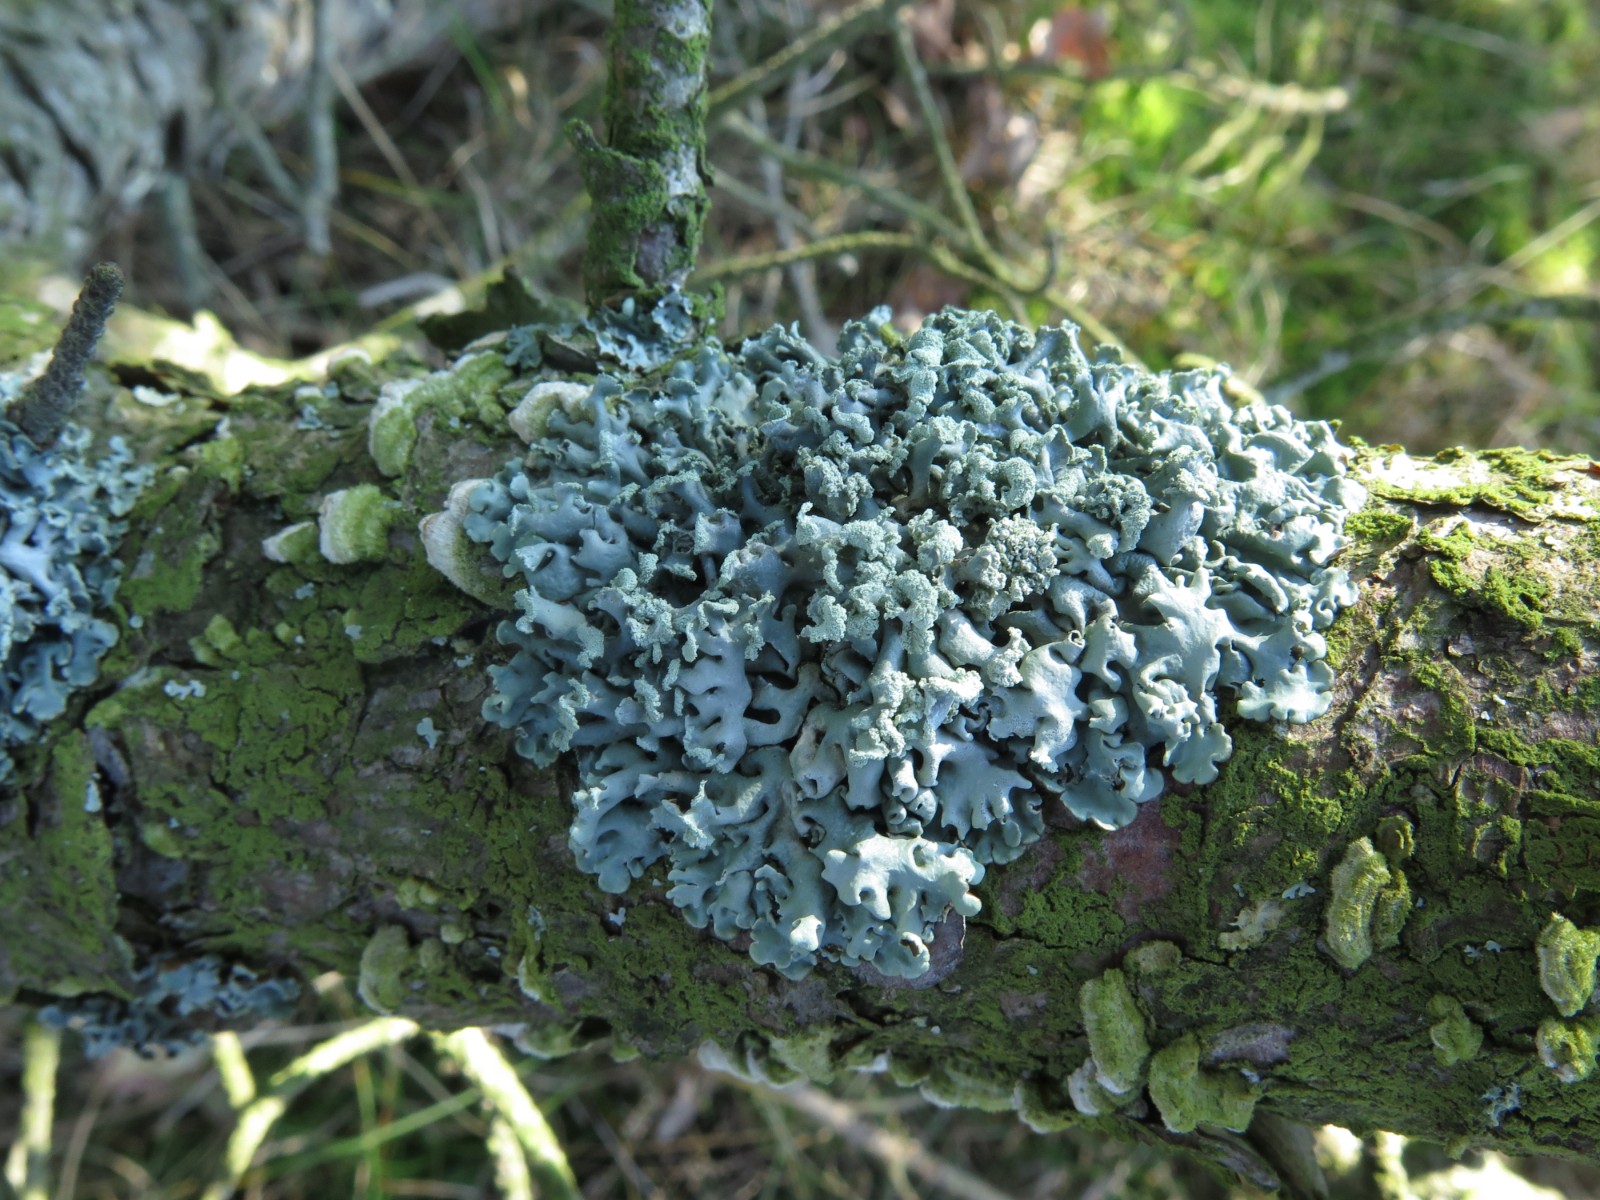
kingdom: Fungi
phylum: Ascomycota
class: Lecanoromycetes
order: Lecanorales
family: Parmeliaceae
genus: Hypogymnia
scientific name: Hypogymnia physodes
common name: almindelig kvistlav
